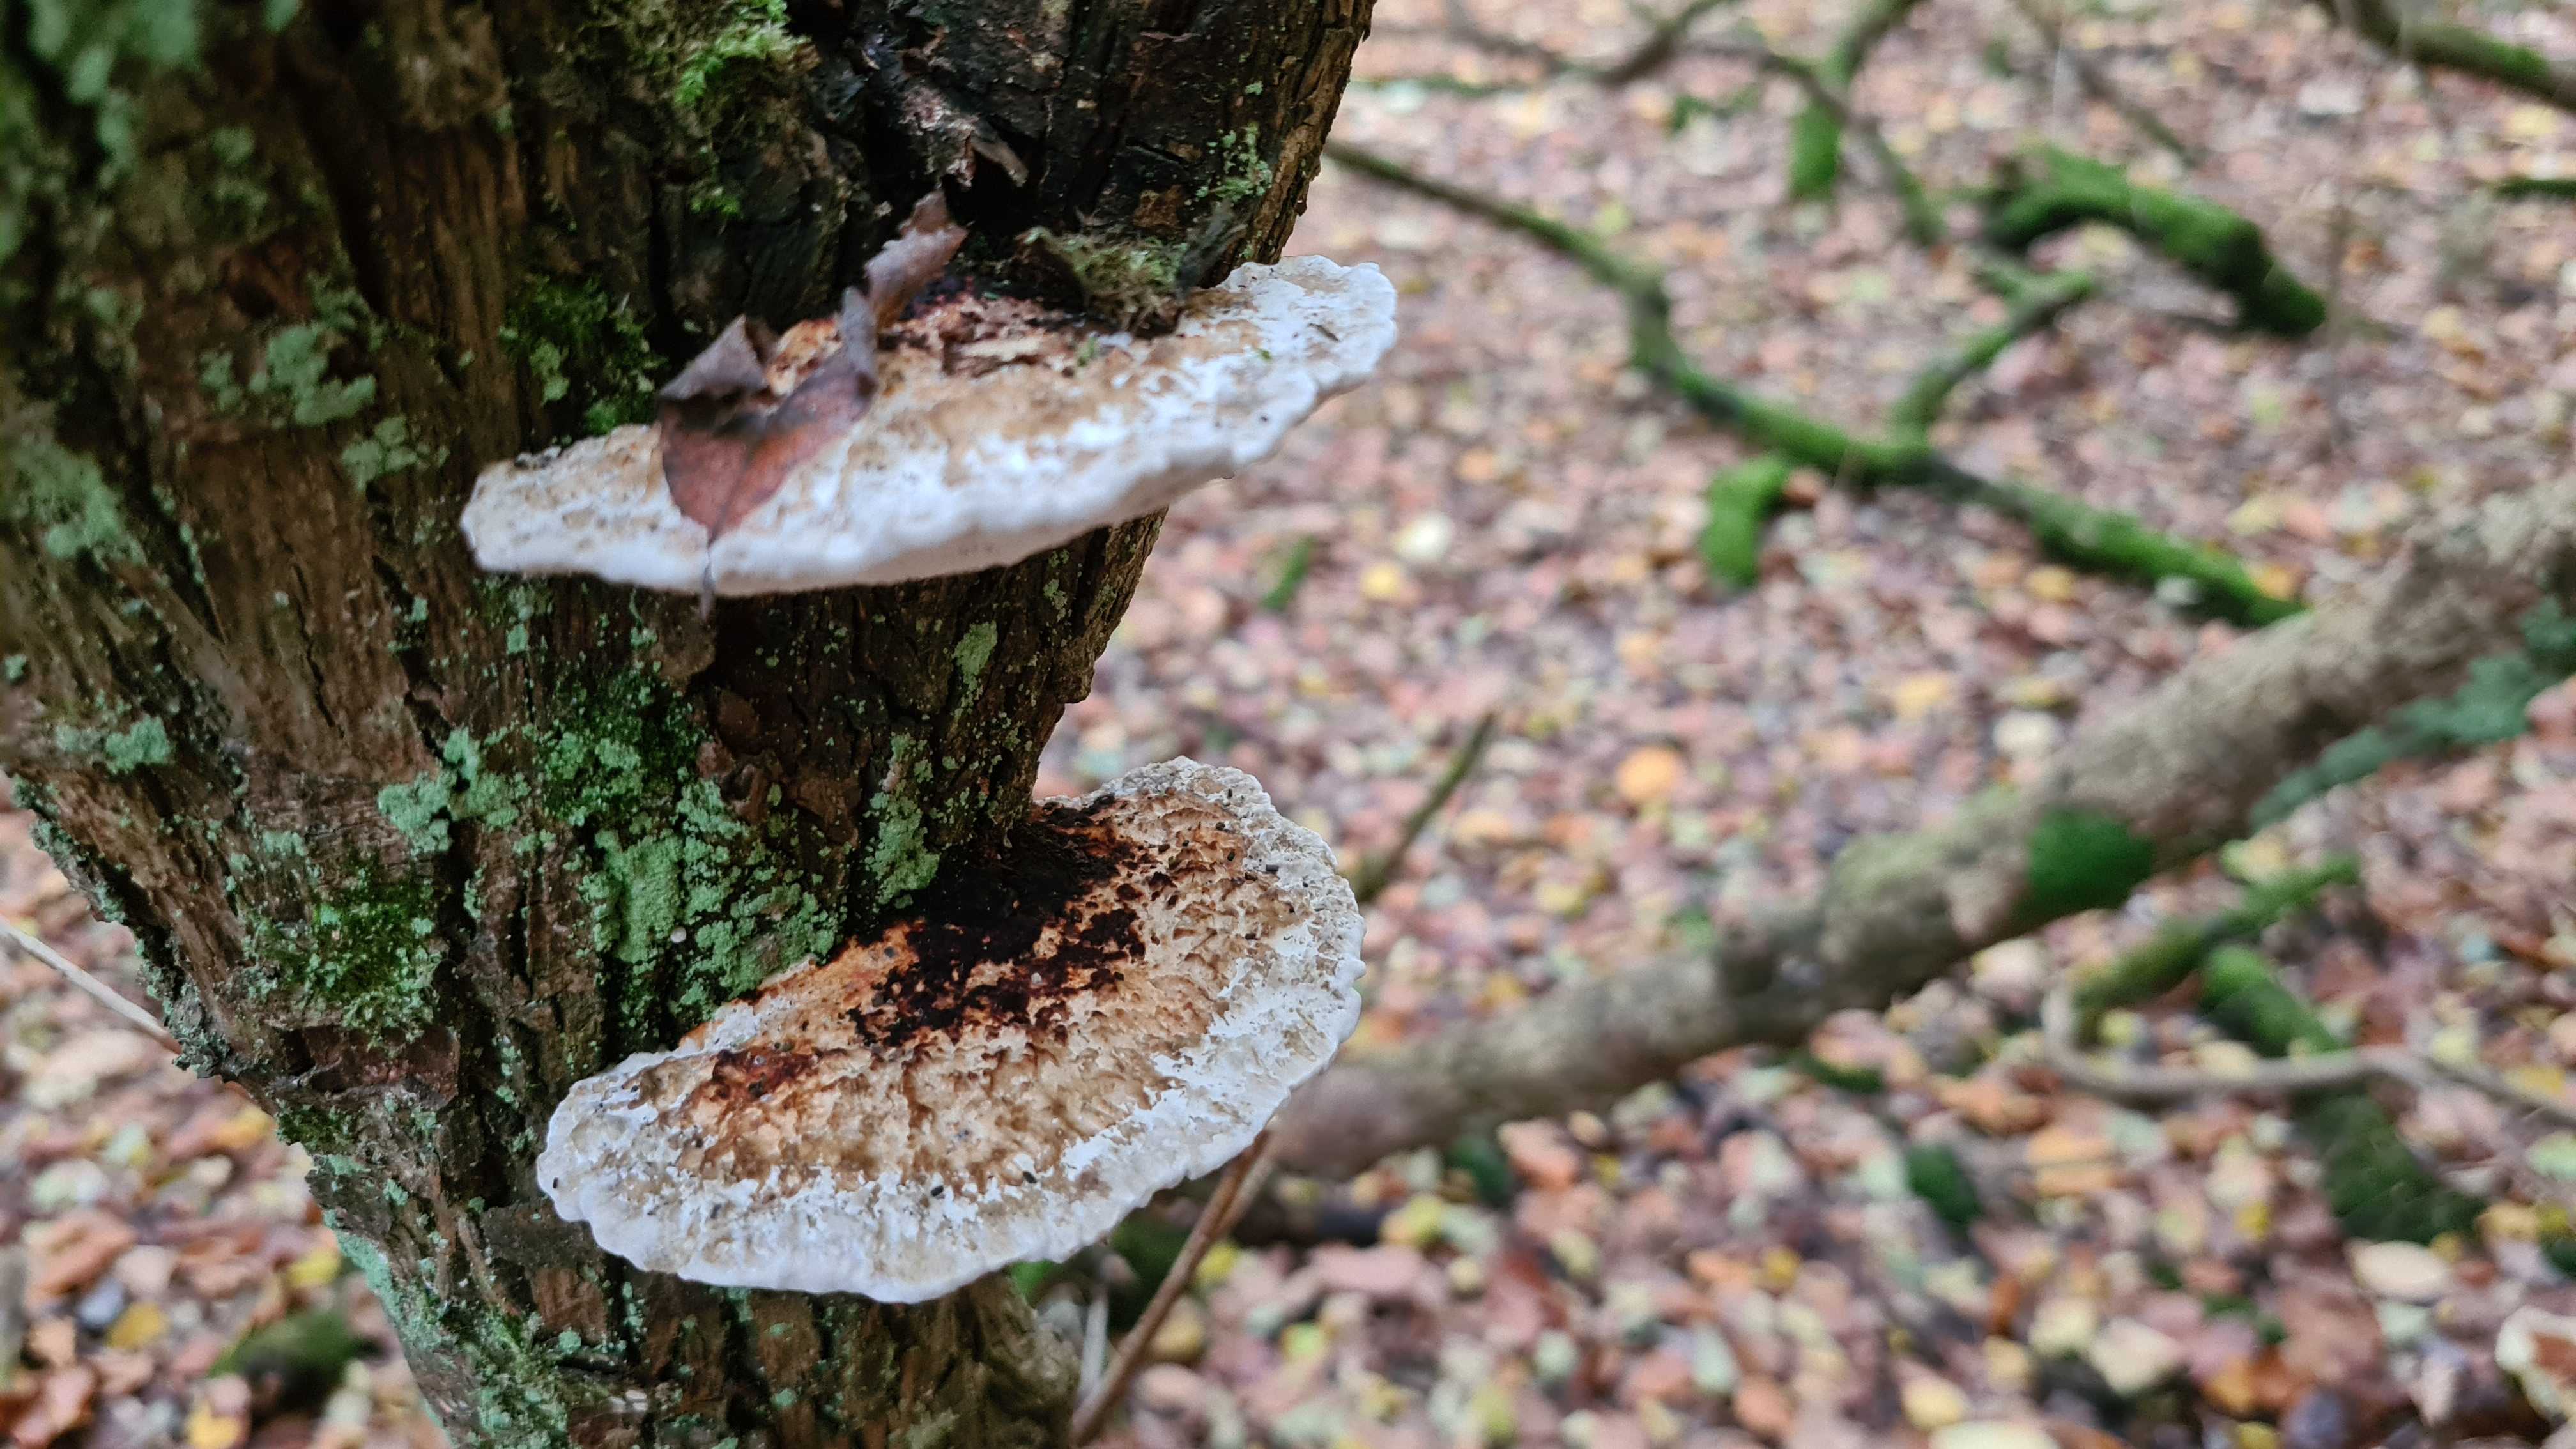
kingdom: Fungi
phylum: Basidiomycota
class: Agaricomycetes
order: Polyporales
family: Polyporaceae
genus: Daedaleopsis
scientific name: Daedaleopsis confragosa
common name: rødmende læderporesvamp
